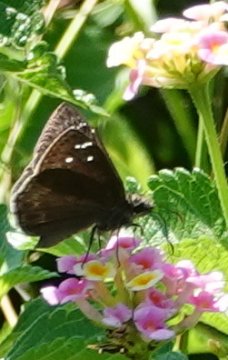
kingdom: Animalia
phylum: Arthropoda
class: Insecta
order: Lepidoptera
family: Hesperiidae
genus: Gesta
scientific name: Gesta
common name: Horace's Duskywing
